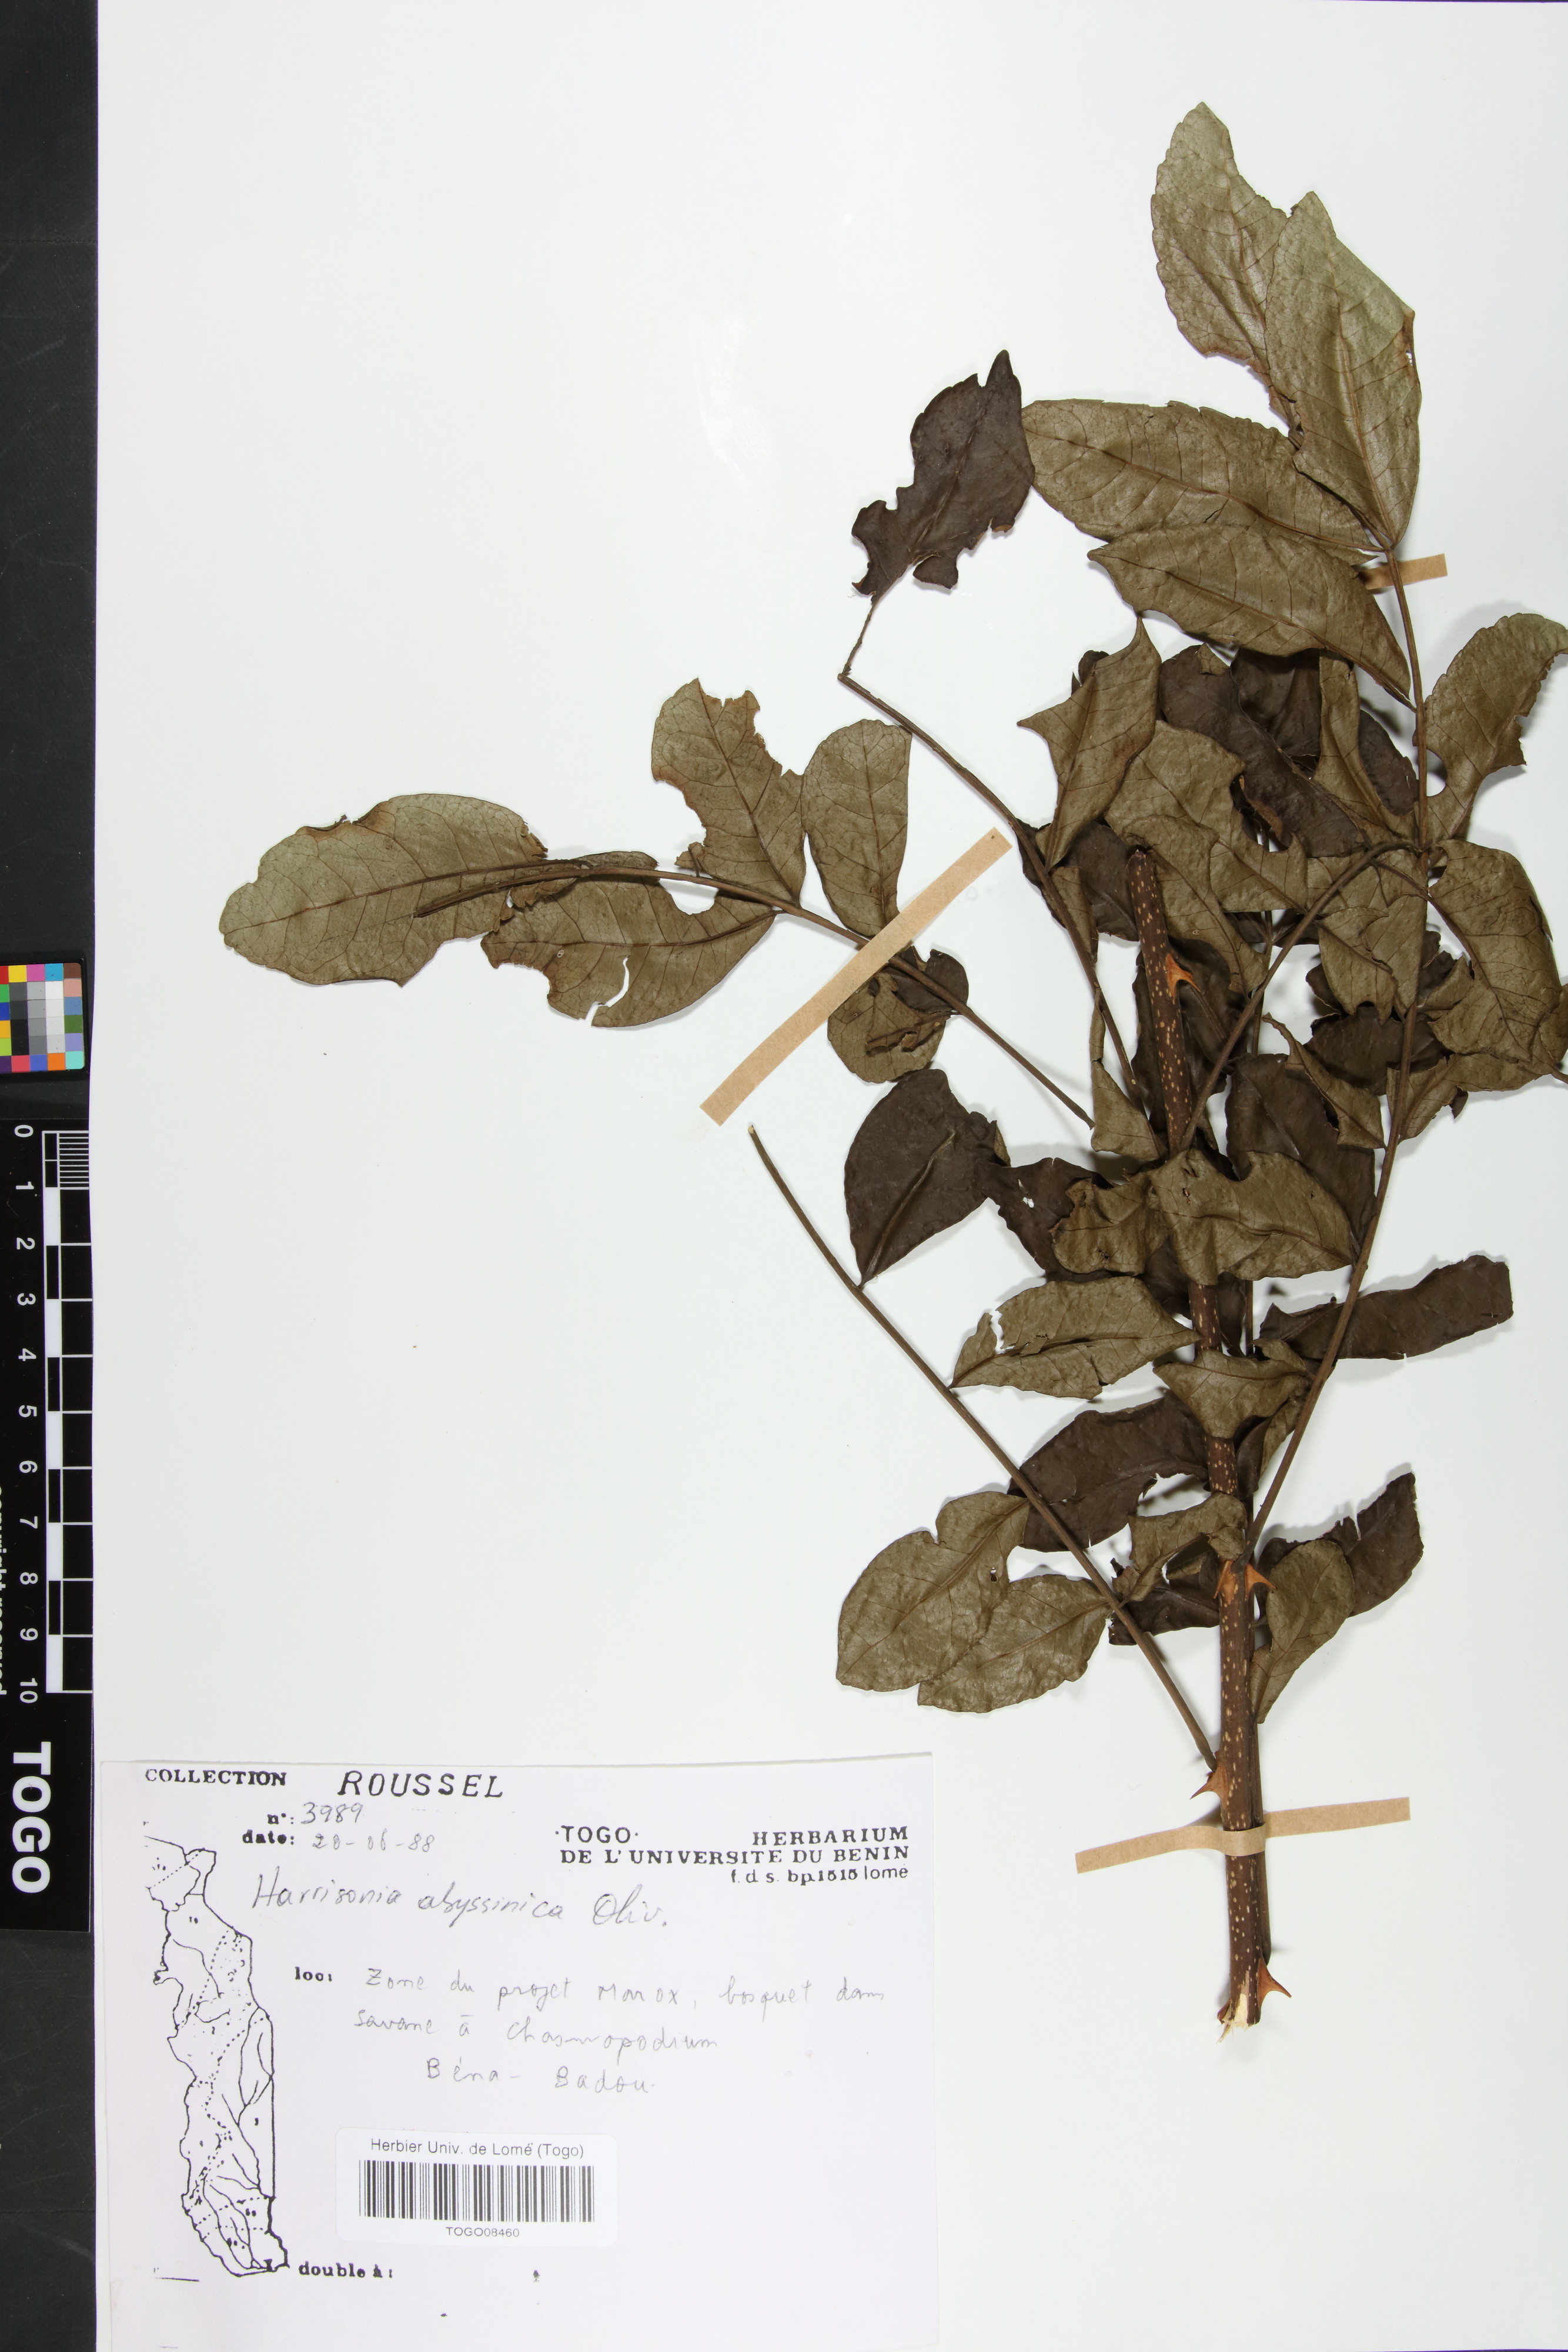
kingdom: Plantae
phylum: Tracheophyta
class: Magnoliopsida
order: Sapindales
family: Rutaceae
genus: Harrisonia
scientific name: Harrisonia abyssinica
